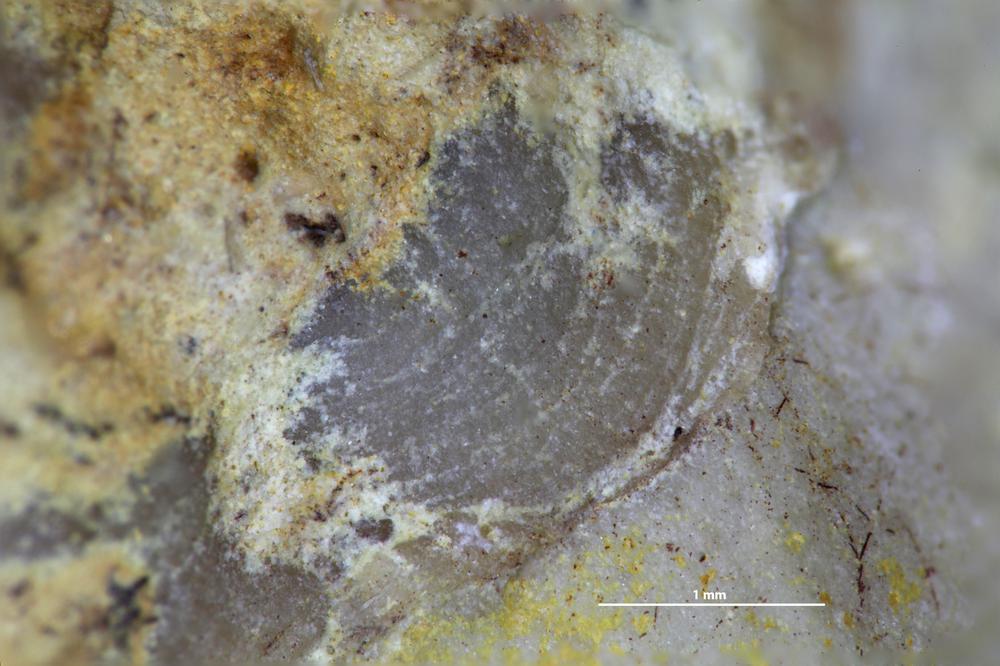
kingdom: Animalia
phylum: Brachiopoda
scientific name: Brachiopoda
